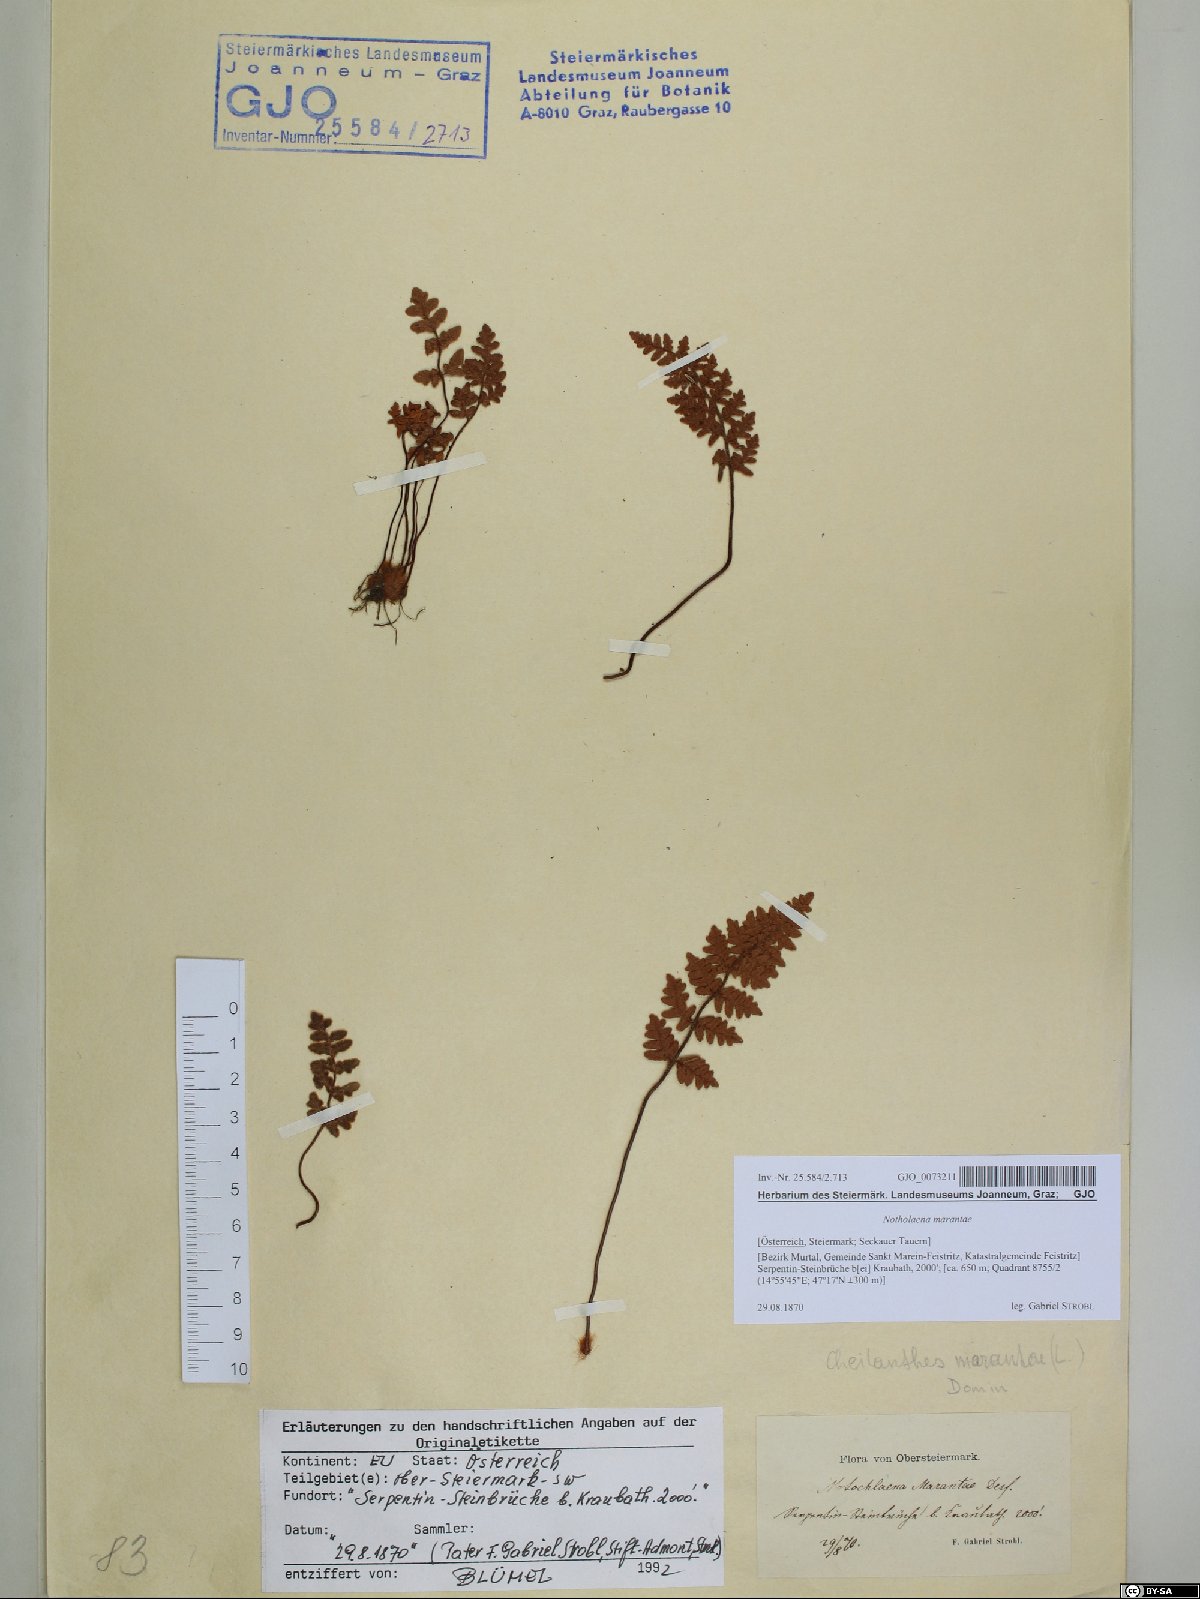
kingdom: Plantae
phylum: Tracheophyta
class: Polypodiopsida
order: Polypodiales
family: Pteridaceae
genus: Paragymnopteris
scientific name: Paragymnopteris marantae
